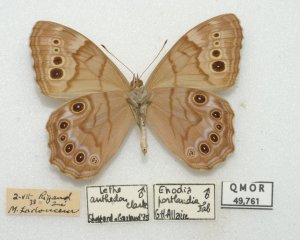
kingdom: Animalia
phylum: Arthropoda
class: Insecta
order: Lepidoptera
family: Nymphalidae
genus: Lethe
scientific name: Lethe anthedon
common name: Northern Pearly-Eye
